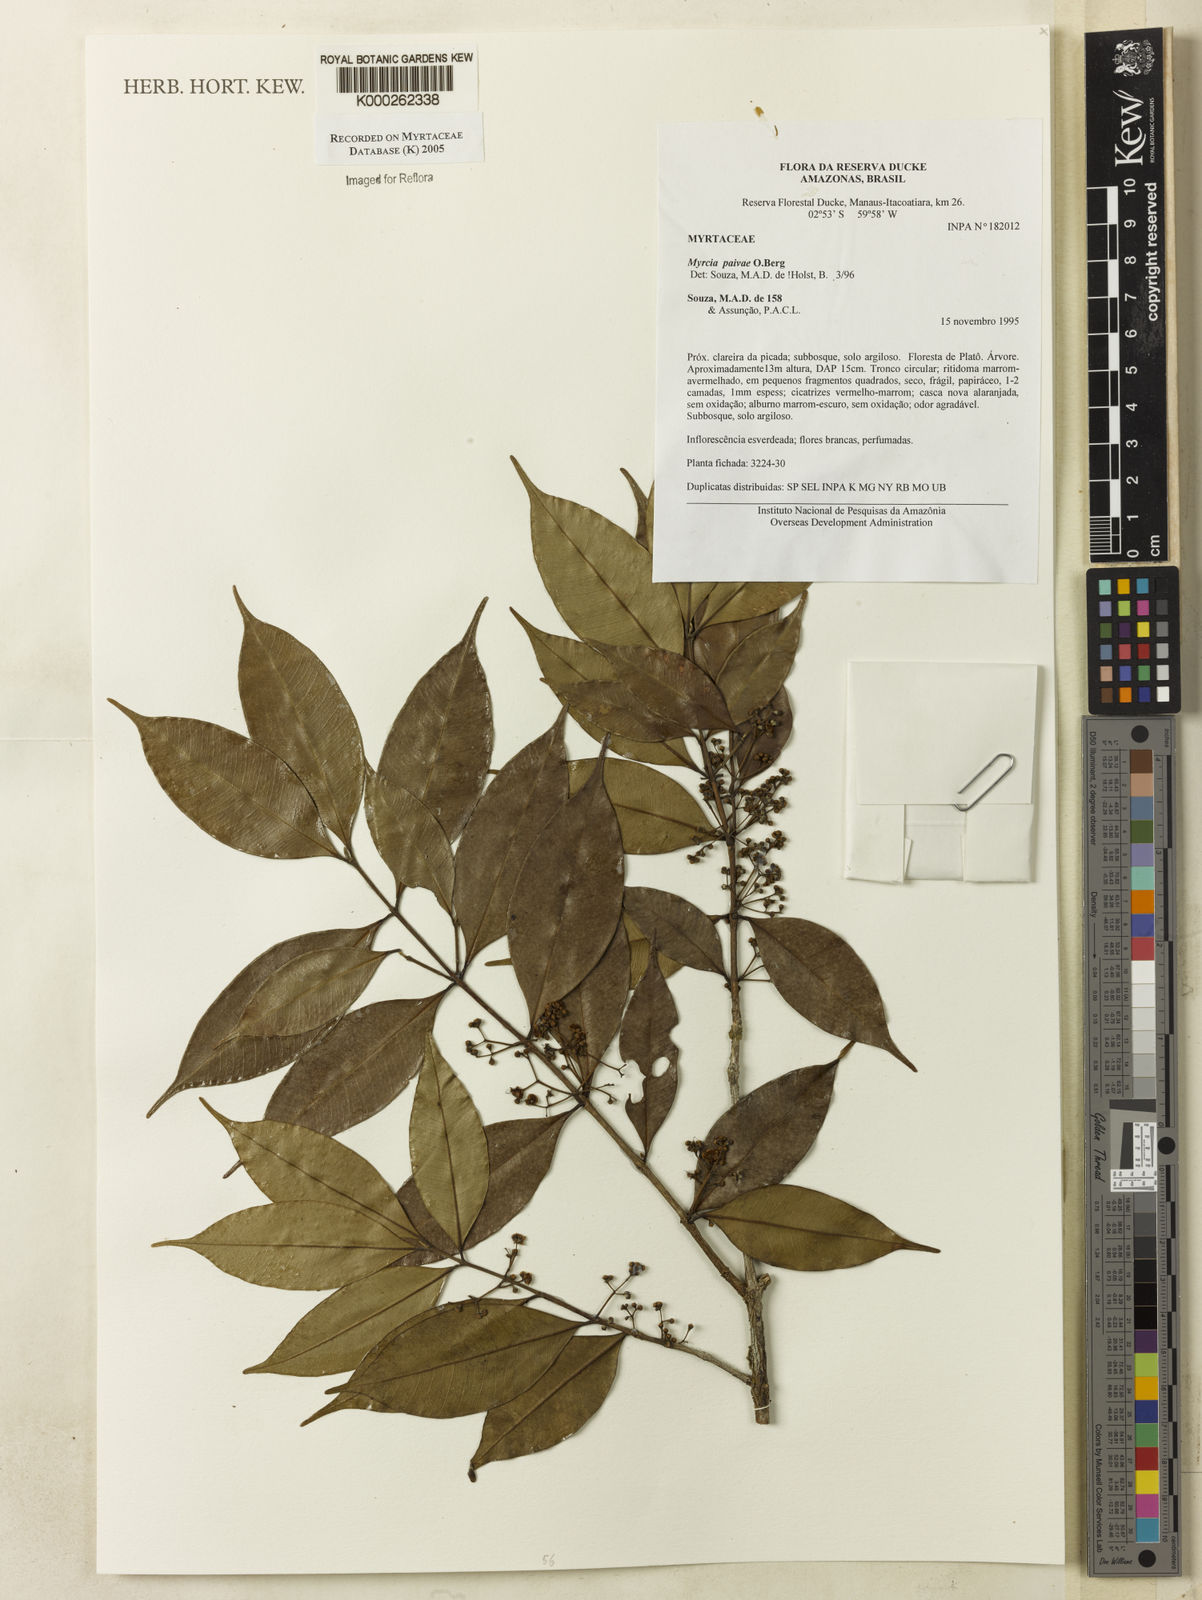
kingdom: Plantae
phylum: Tracheophyta
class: Magnoliopsida
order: Myrtales
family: Myrtaceae
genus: Myrcia
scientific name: Myrcia paivae
